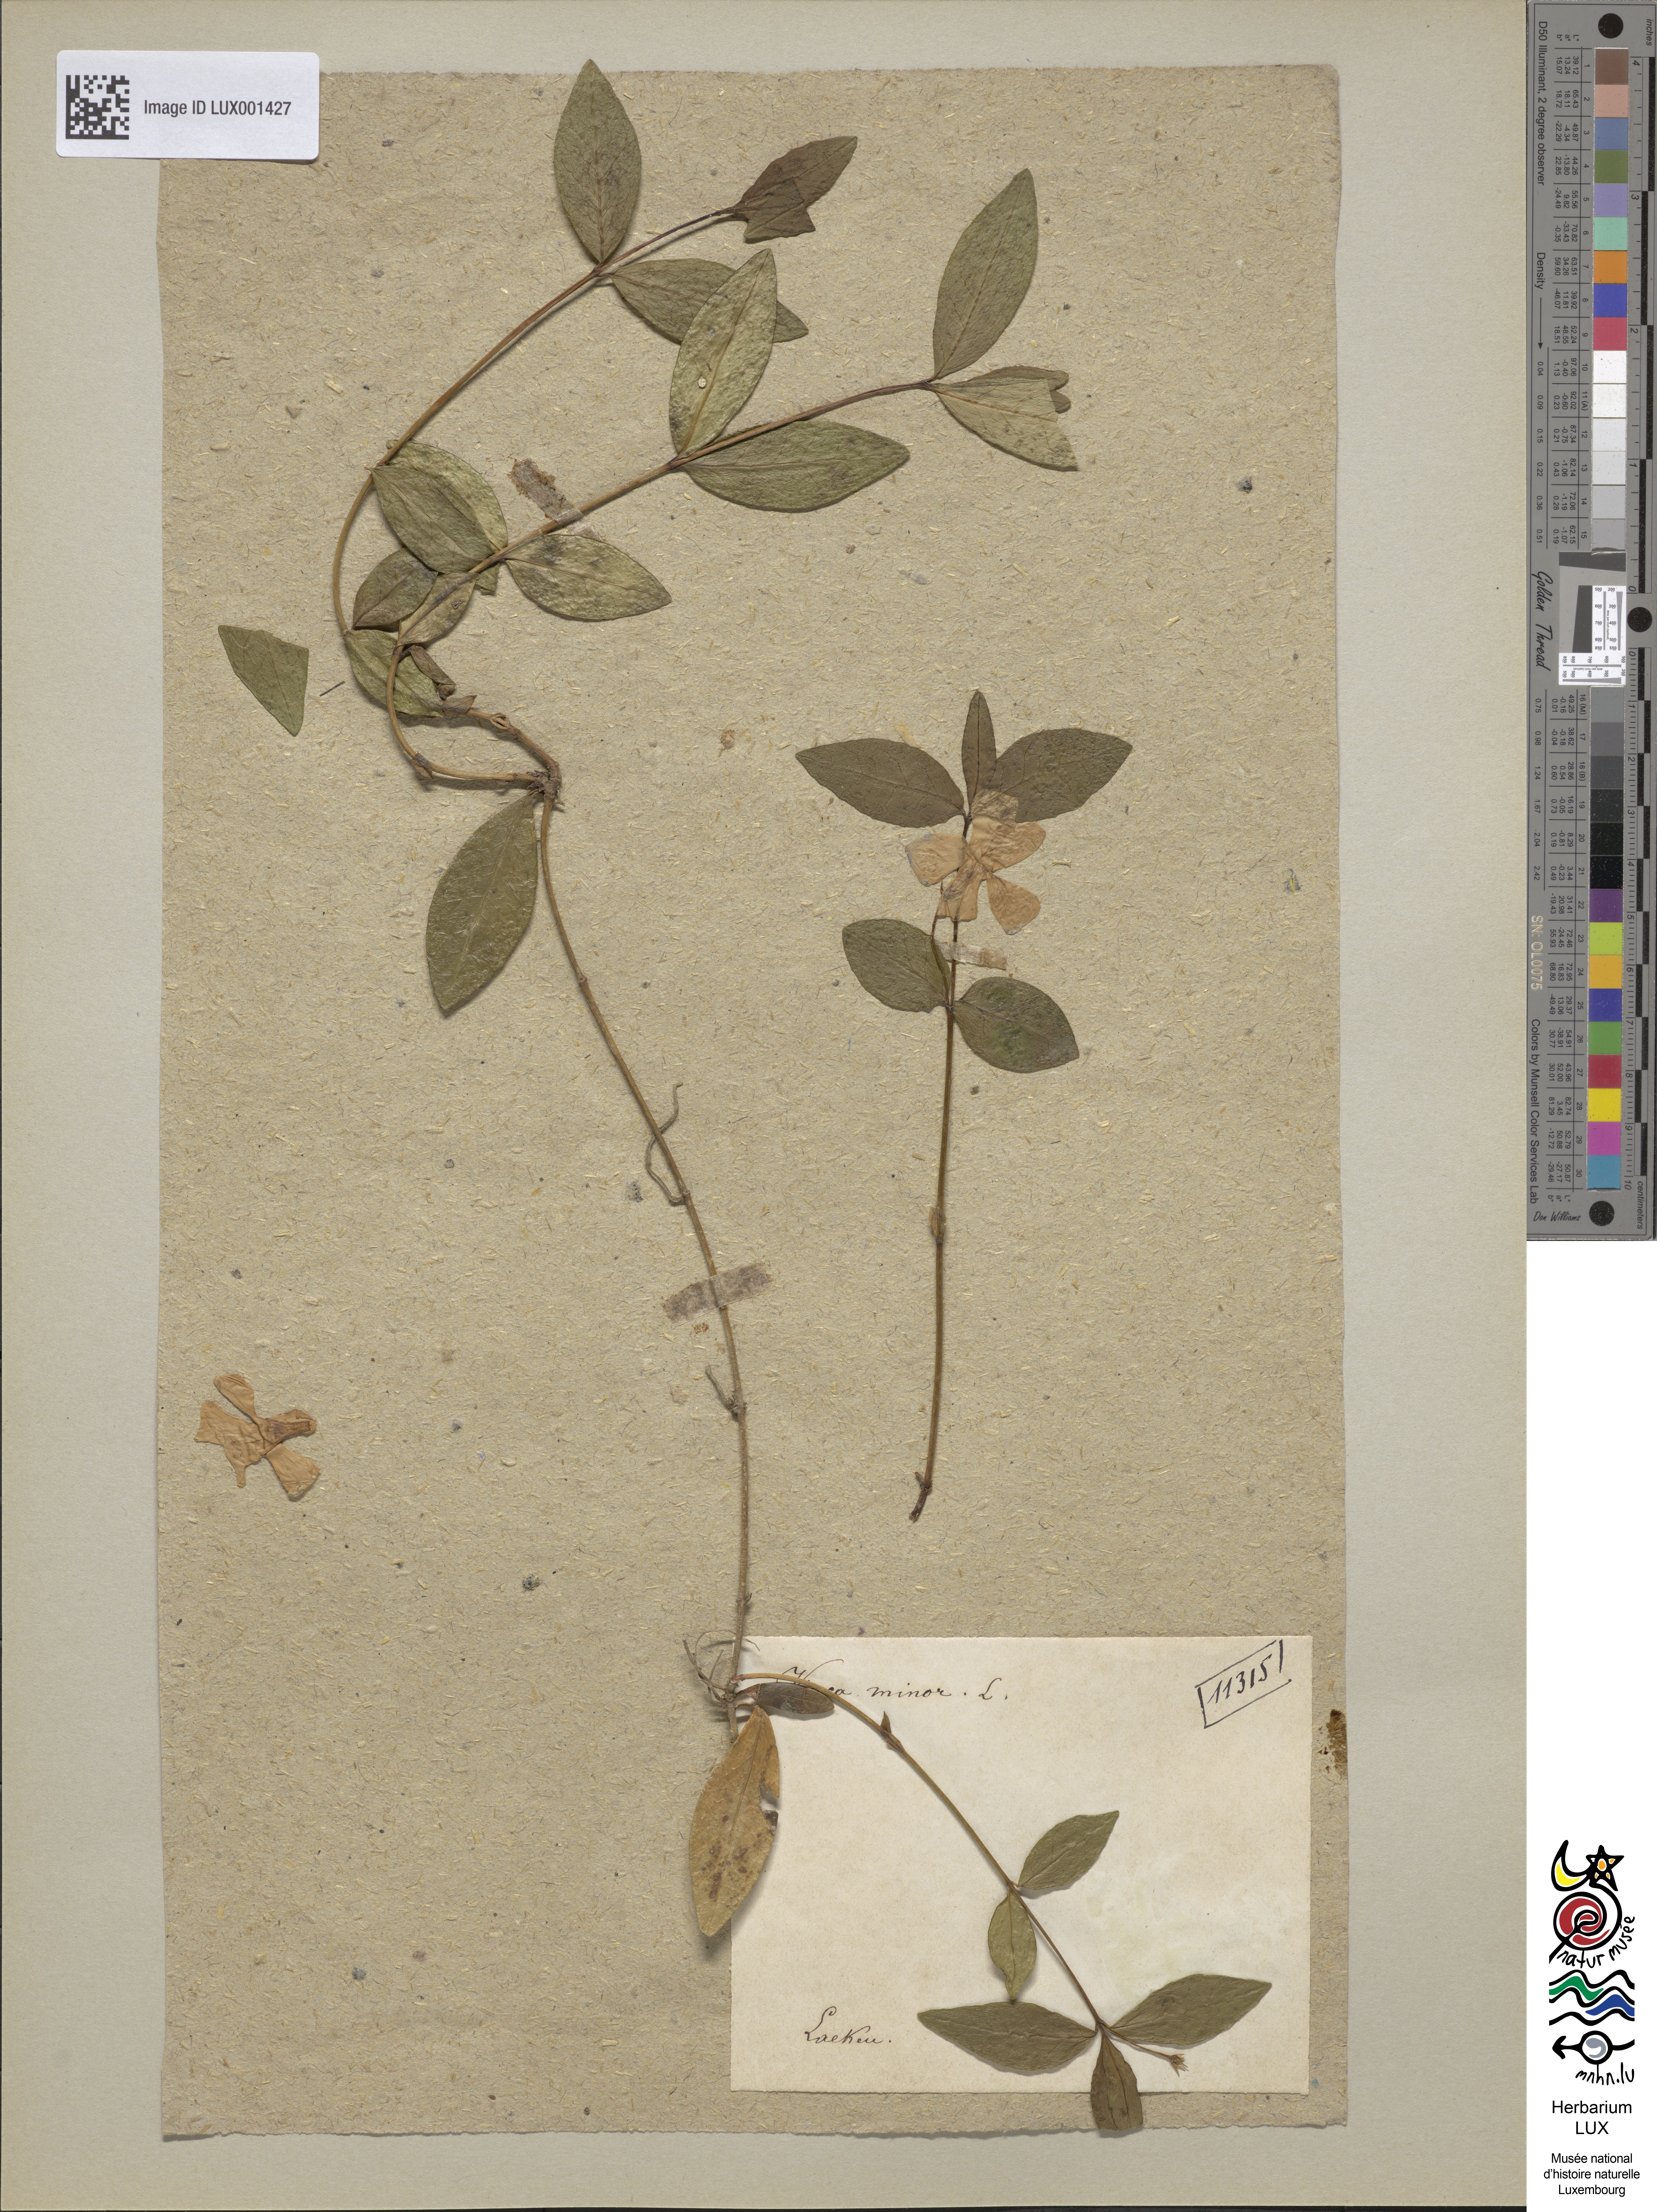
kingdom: Plantae
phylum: Tracheophyta
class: Magnoliopsida
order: Gentianales
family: Apocynaceae
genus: Vinca
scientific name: Vinca minor
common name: Lesser periwinkle
